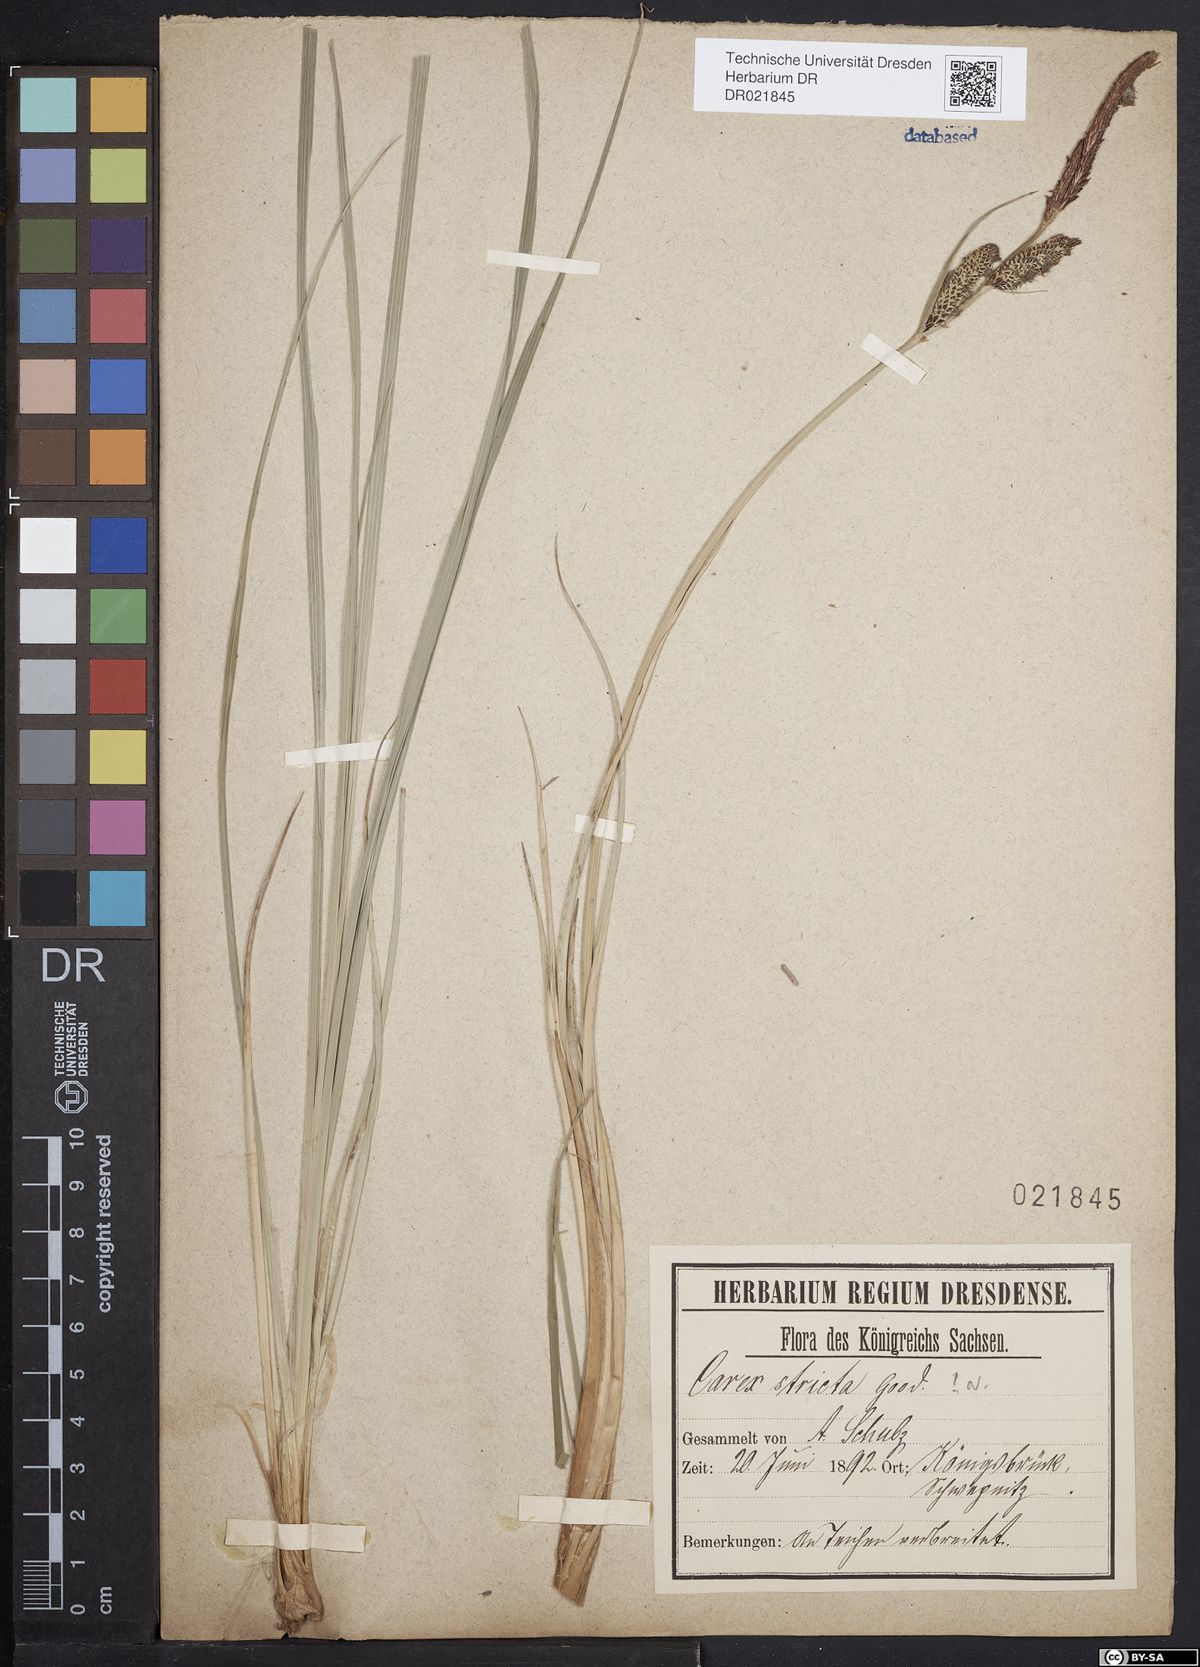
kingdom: Plantae
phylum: Tracheophyta
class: Liliopsida
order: Poales
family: Cyperaceae
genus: Carex
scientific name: Carex acuta
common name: Slender tufted-sedge
